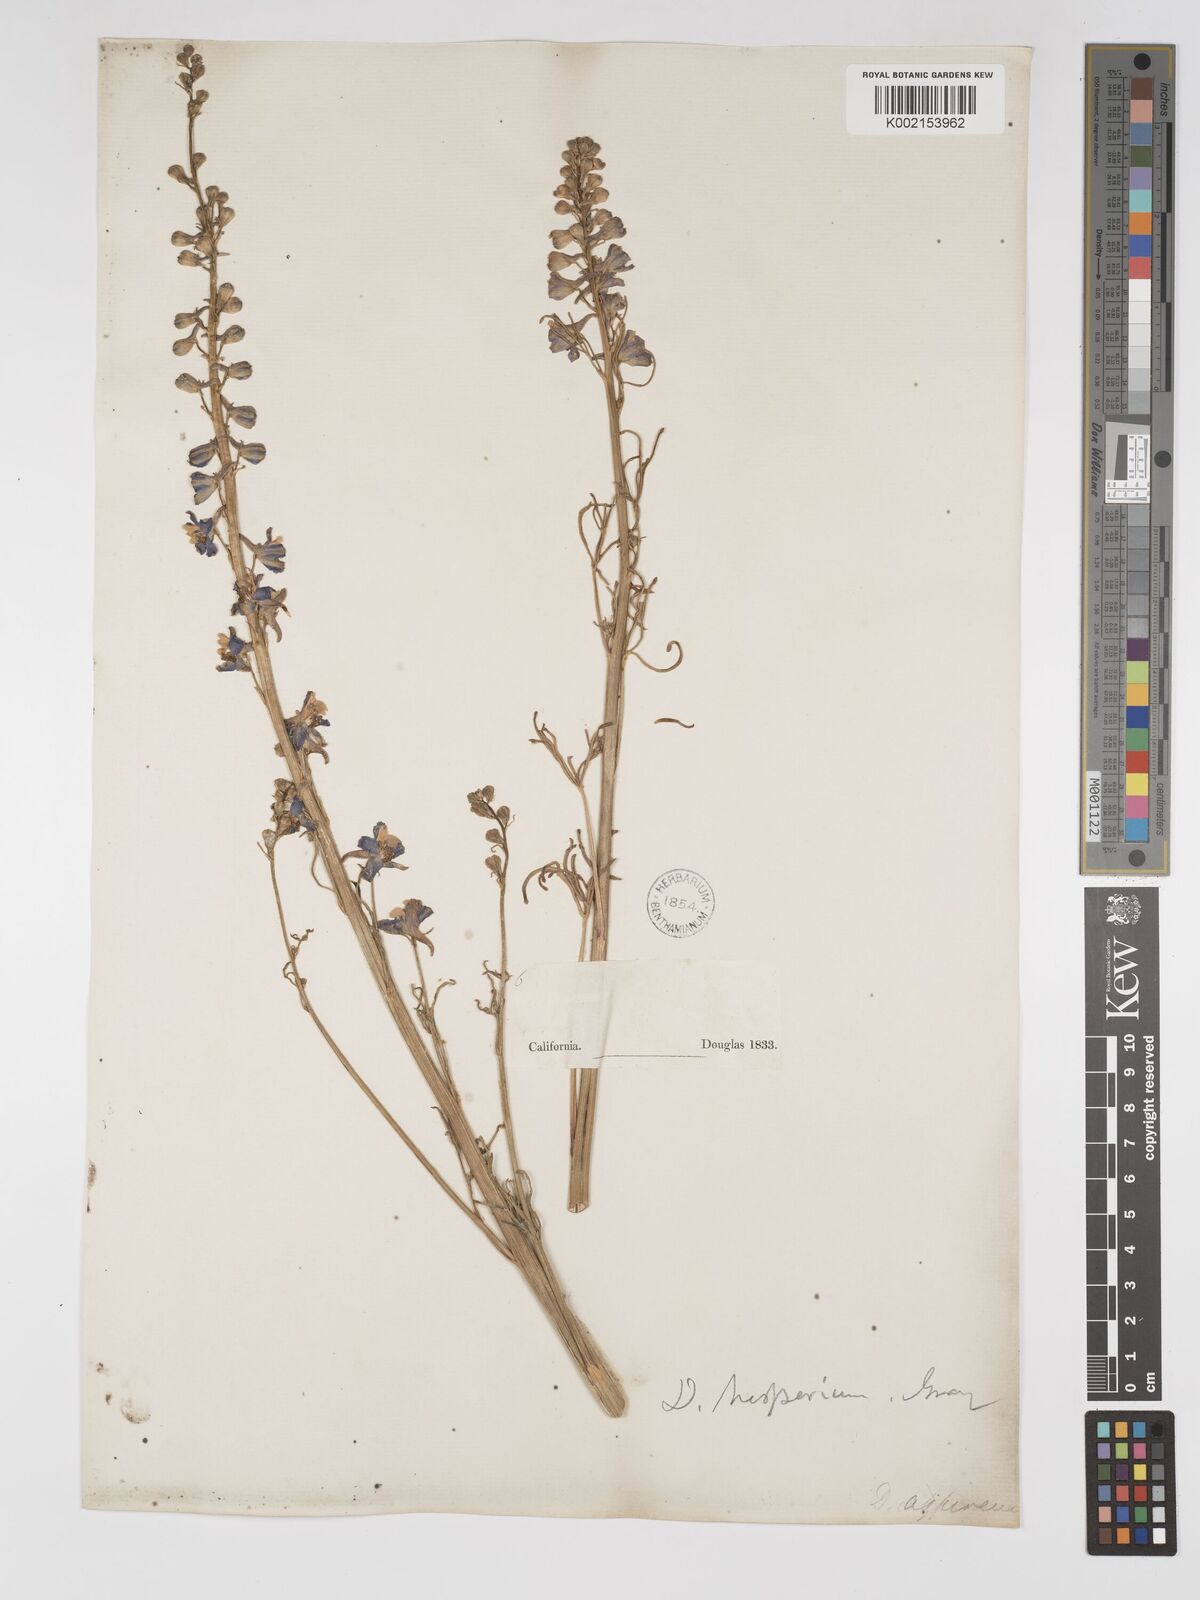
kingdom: Plantae
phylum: Tracheophyta
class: Magnoliopsida
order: Ranunculales
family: Ranunculaceae
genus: Delphinium
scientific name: Delphinium hansenii
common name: Hansen's larkspur
